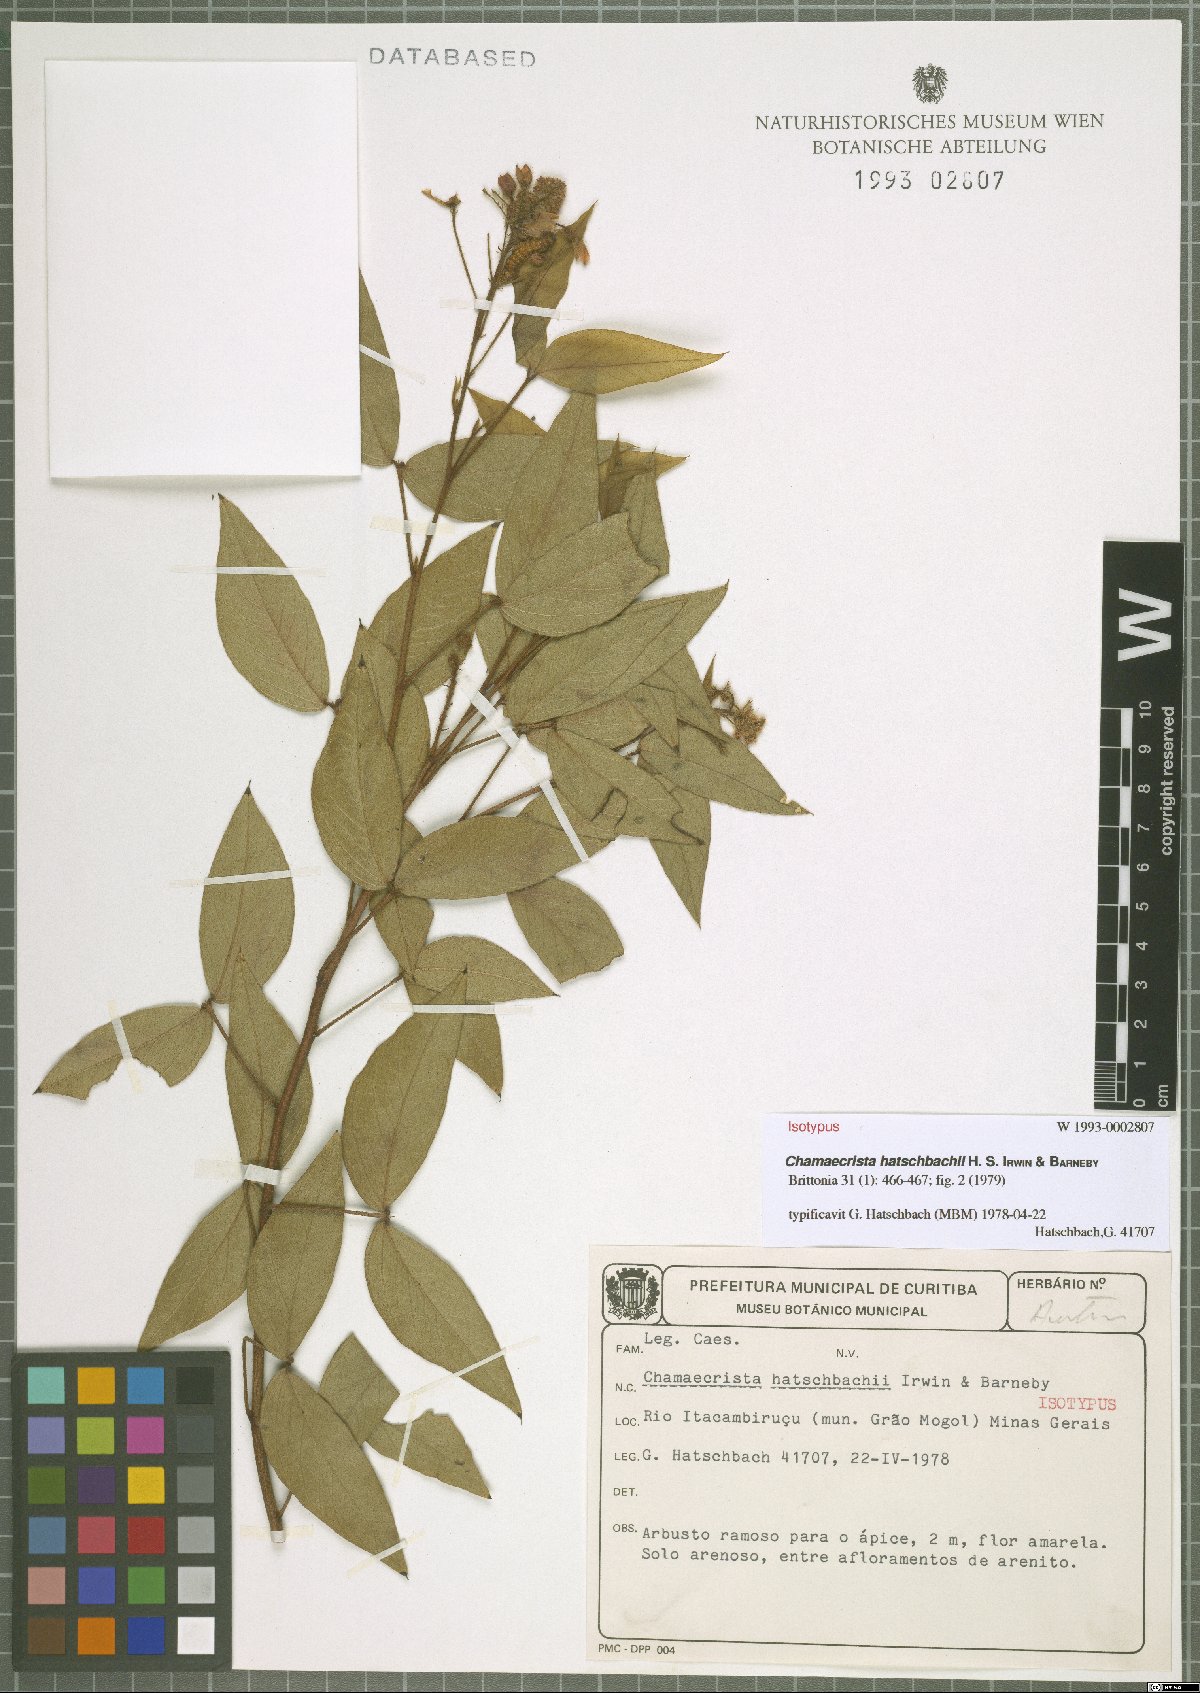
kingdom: Plantae
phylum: Tracheophyta
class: Magnoliopsida
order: Fabales
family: Fabaceae
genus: Chamaecrista
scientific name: Chamaecrista hatschbachii
